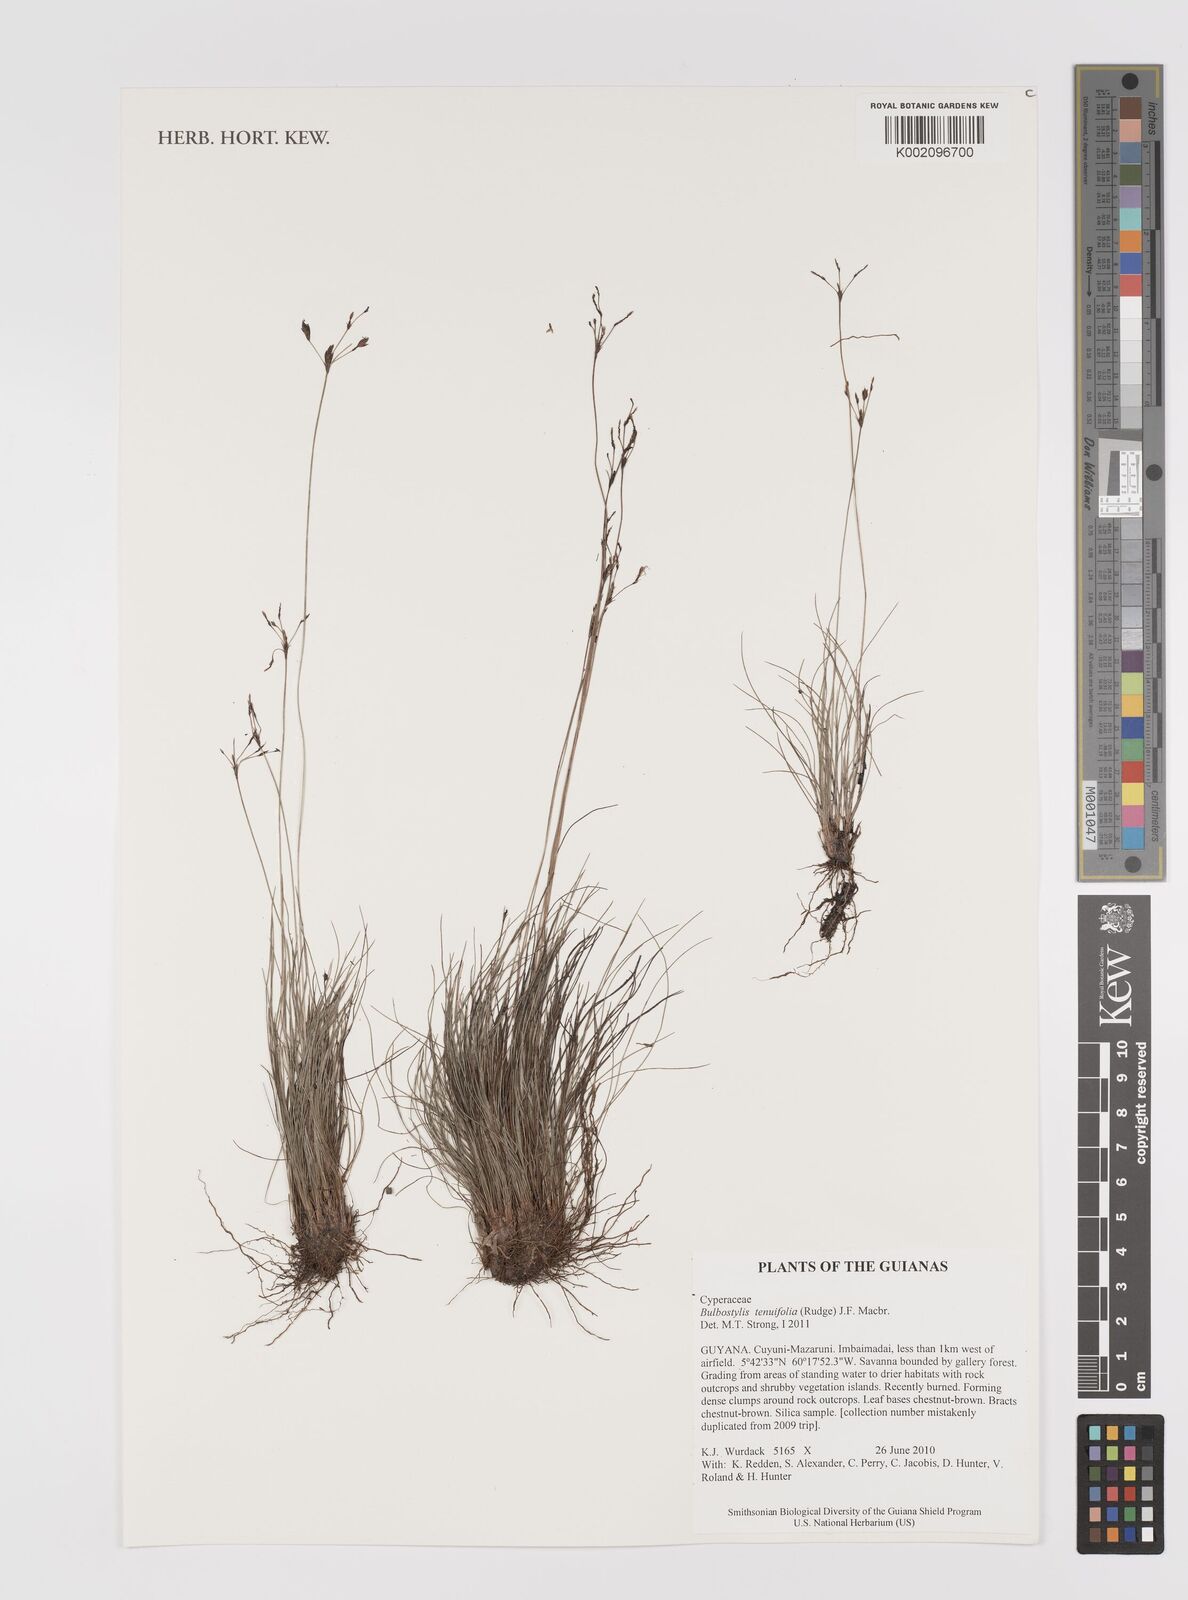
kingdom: Plantae
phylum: Tracheophyta
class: Liliopsida
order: Poales
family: Cyperaceae
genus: Bulbostylis
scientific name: Bulbostylis tenuifolia
